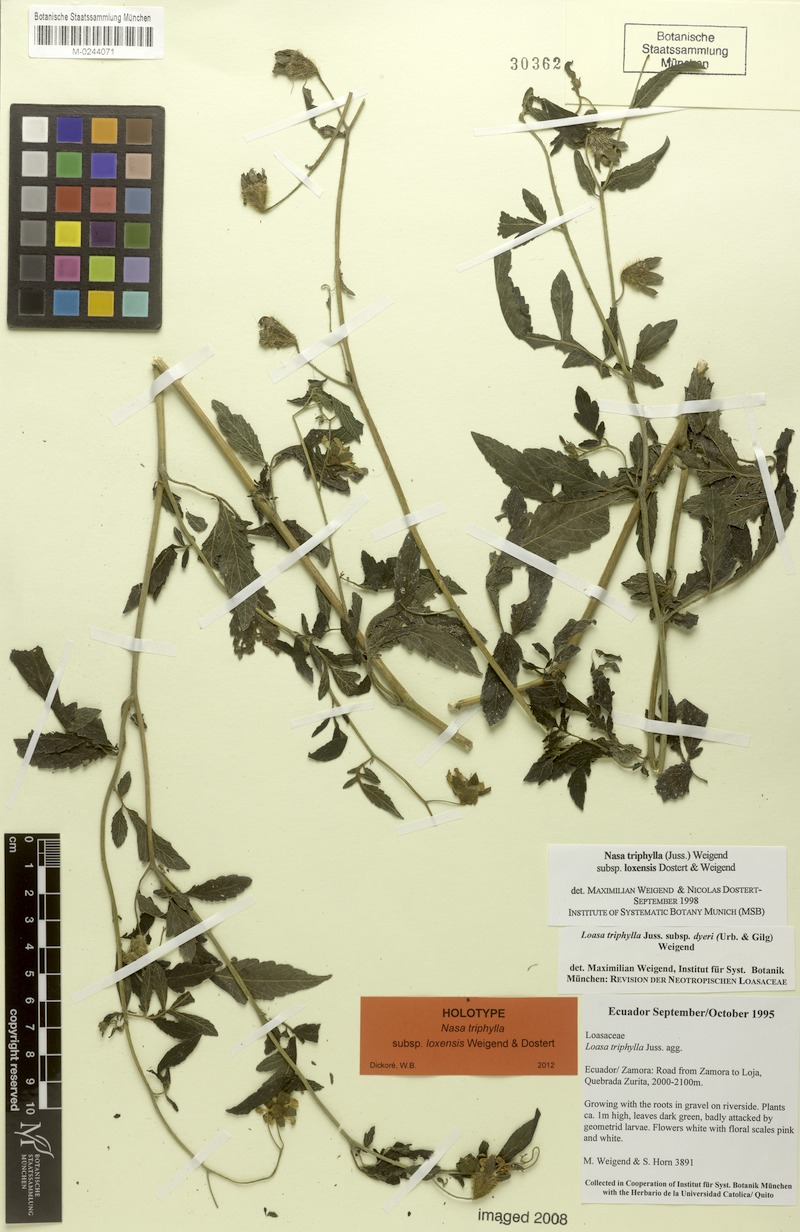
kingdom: Plantae
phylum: Tracheophyta
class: Magnoliopsida
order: Cornales
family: Loasaceae
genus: Nasa
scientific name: Nasa triphylla
